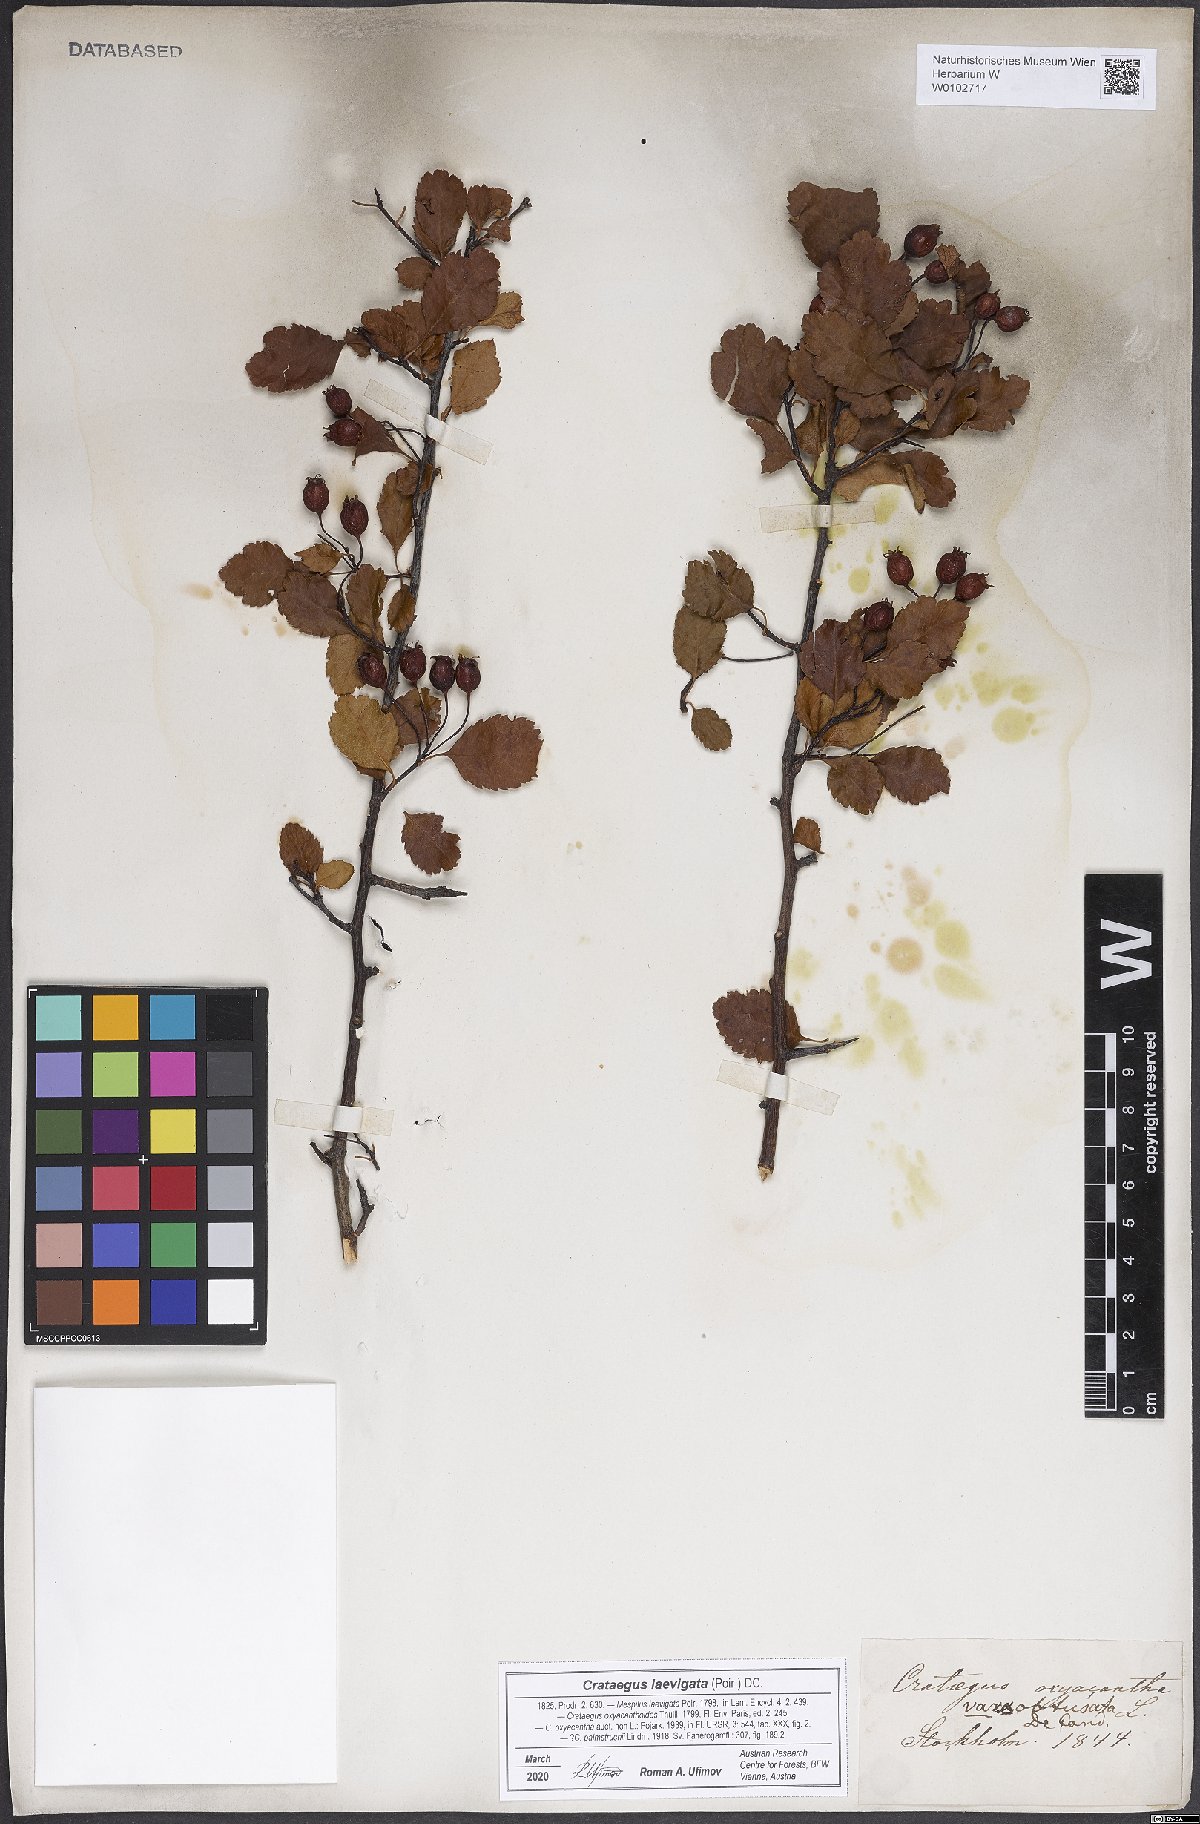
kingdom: Plantae
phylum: Tracheophyta
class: Magnoliopsida
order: Rosales
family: Rosaceae
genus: Crataegus
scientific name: Crataegus laevigata
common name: Midland hawthorn
